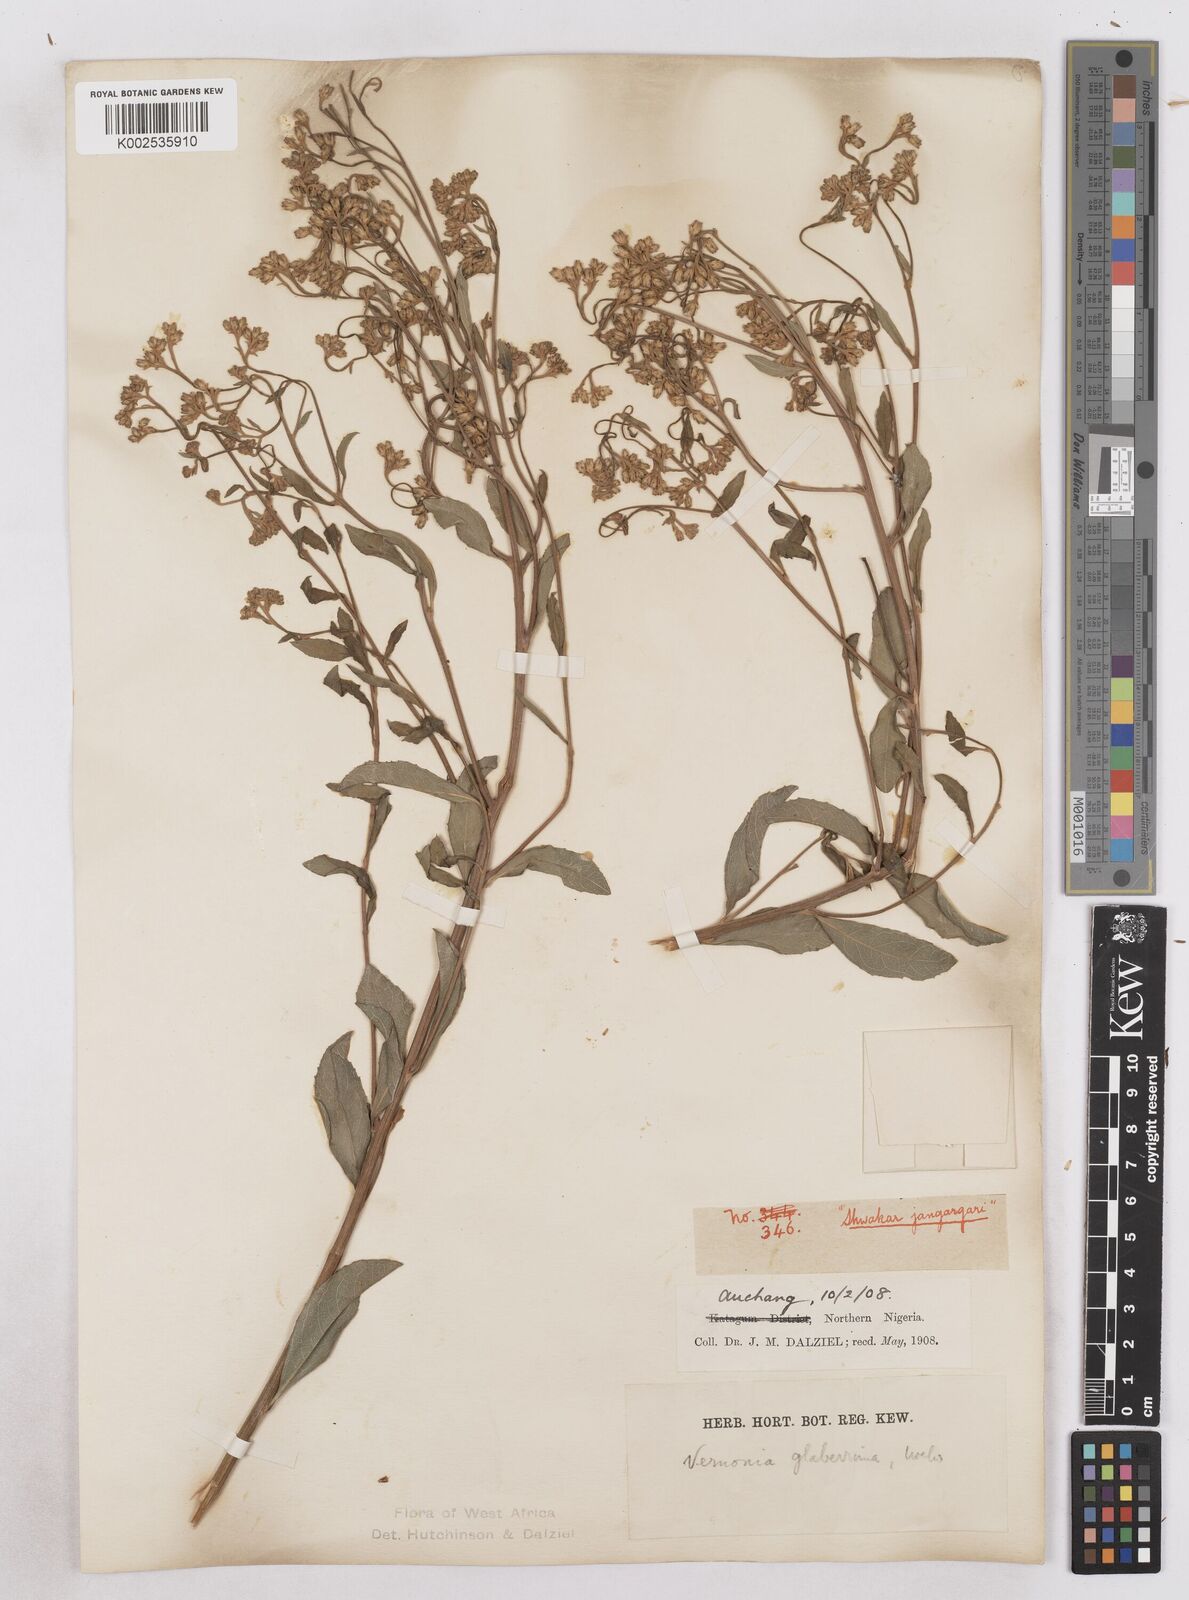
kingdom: Plantae
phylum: Tracheophyta
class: Magnoliopsida
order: Asterales
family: Asteraceae
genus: Gymnanthemum
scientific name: Gymnanthemum glaberrimum
